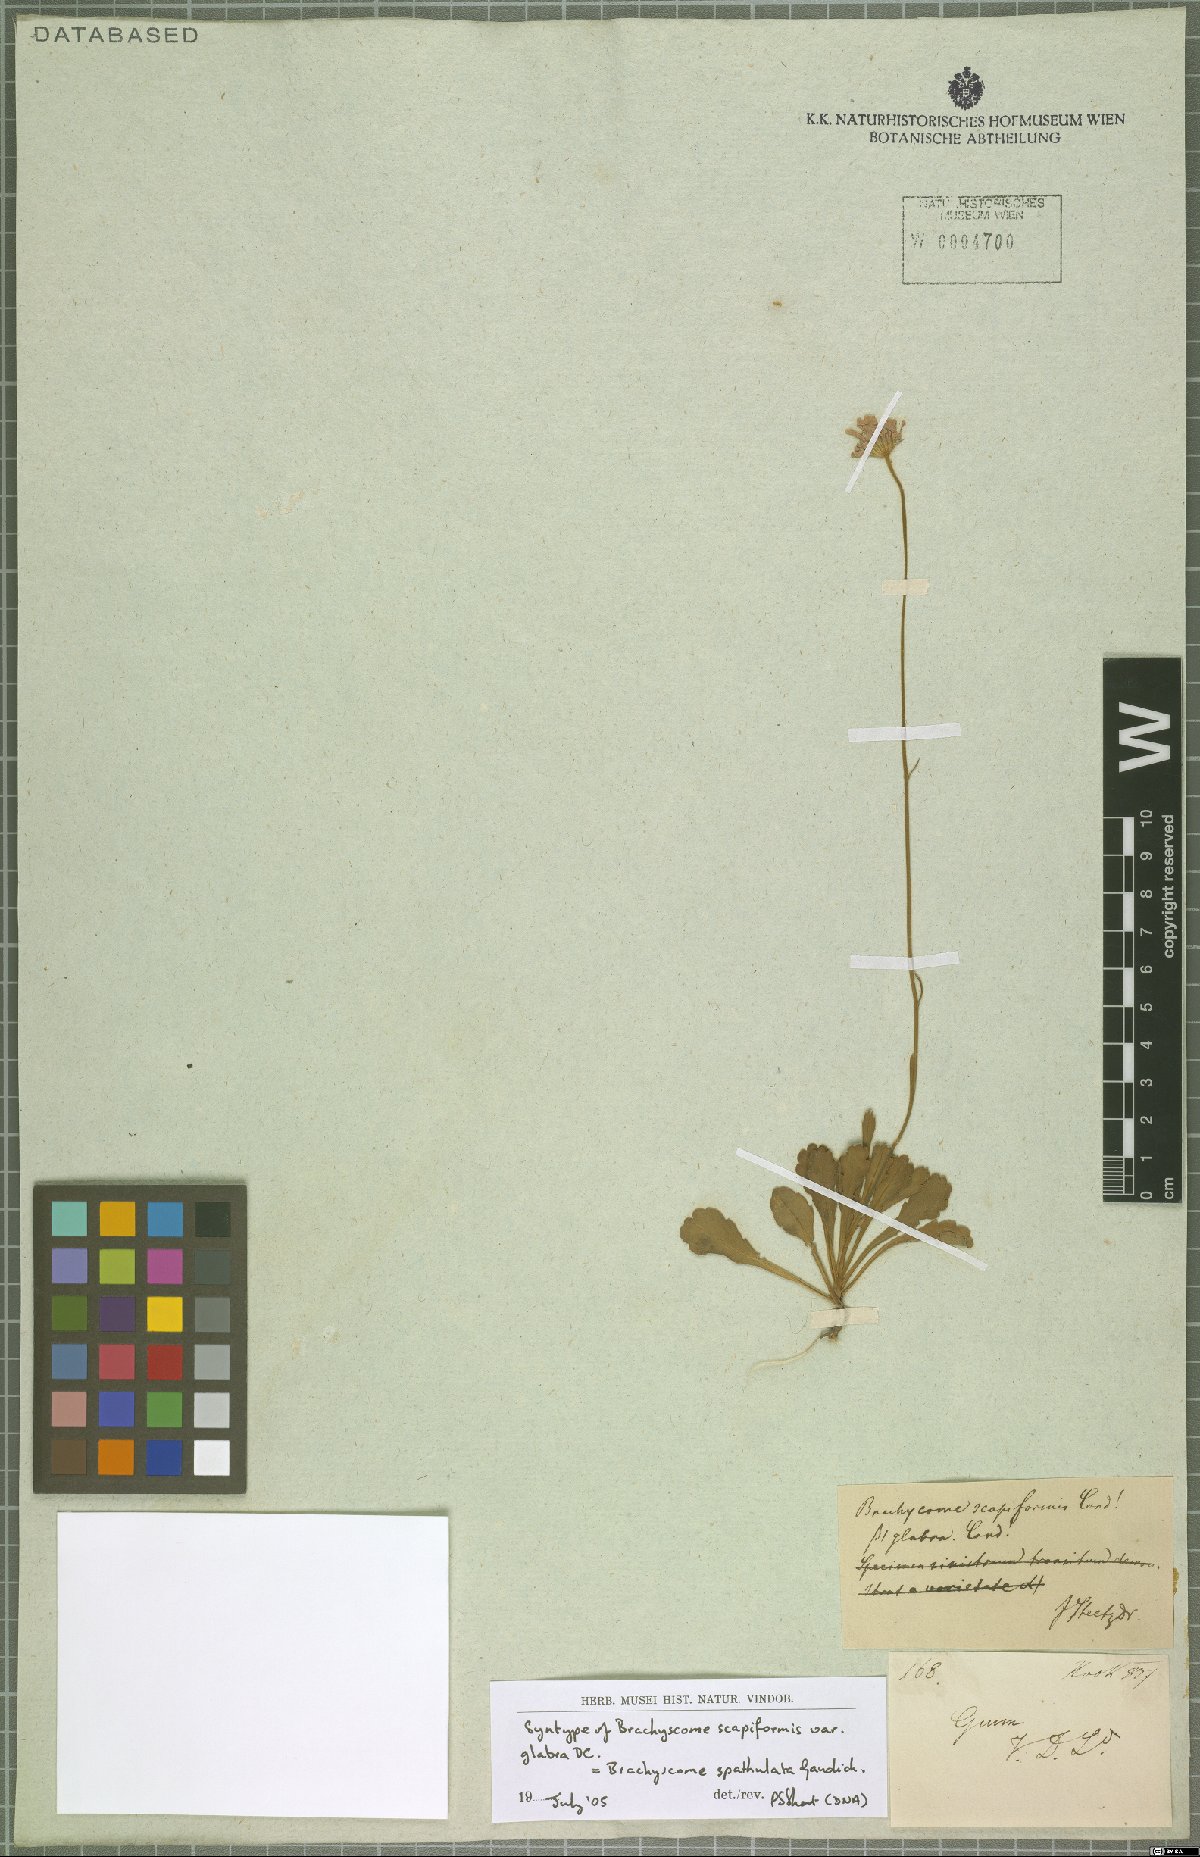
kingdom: Plantae
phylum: Tracheophyta
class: Magnoliopsida
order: Asterales
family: Asteraceae
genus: Brachyscome
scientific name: Brachyscome spathulata
